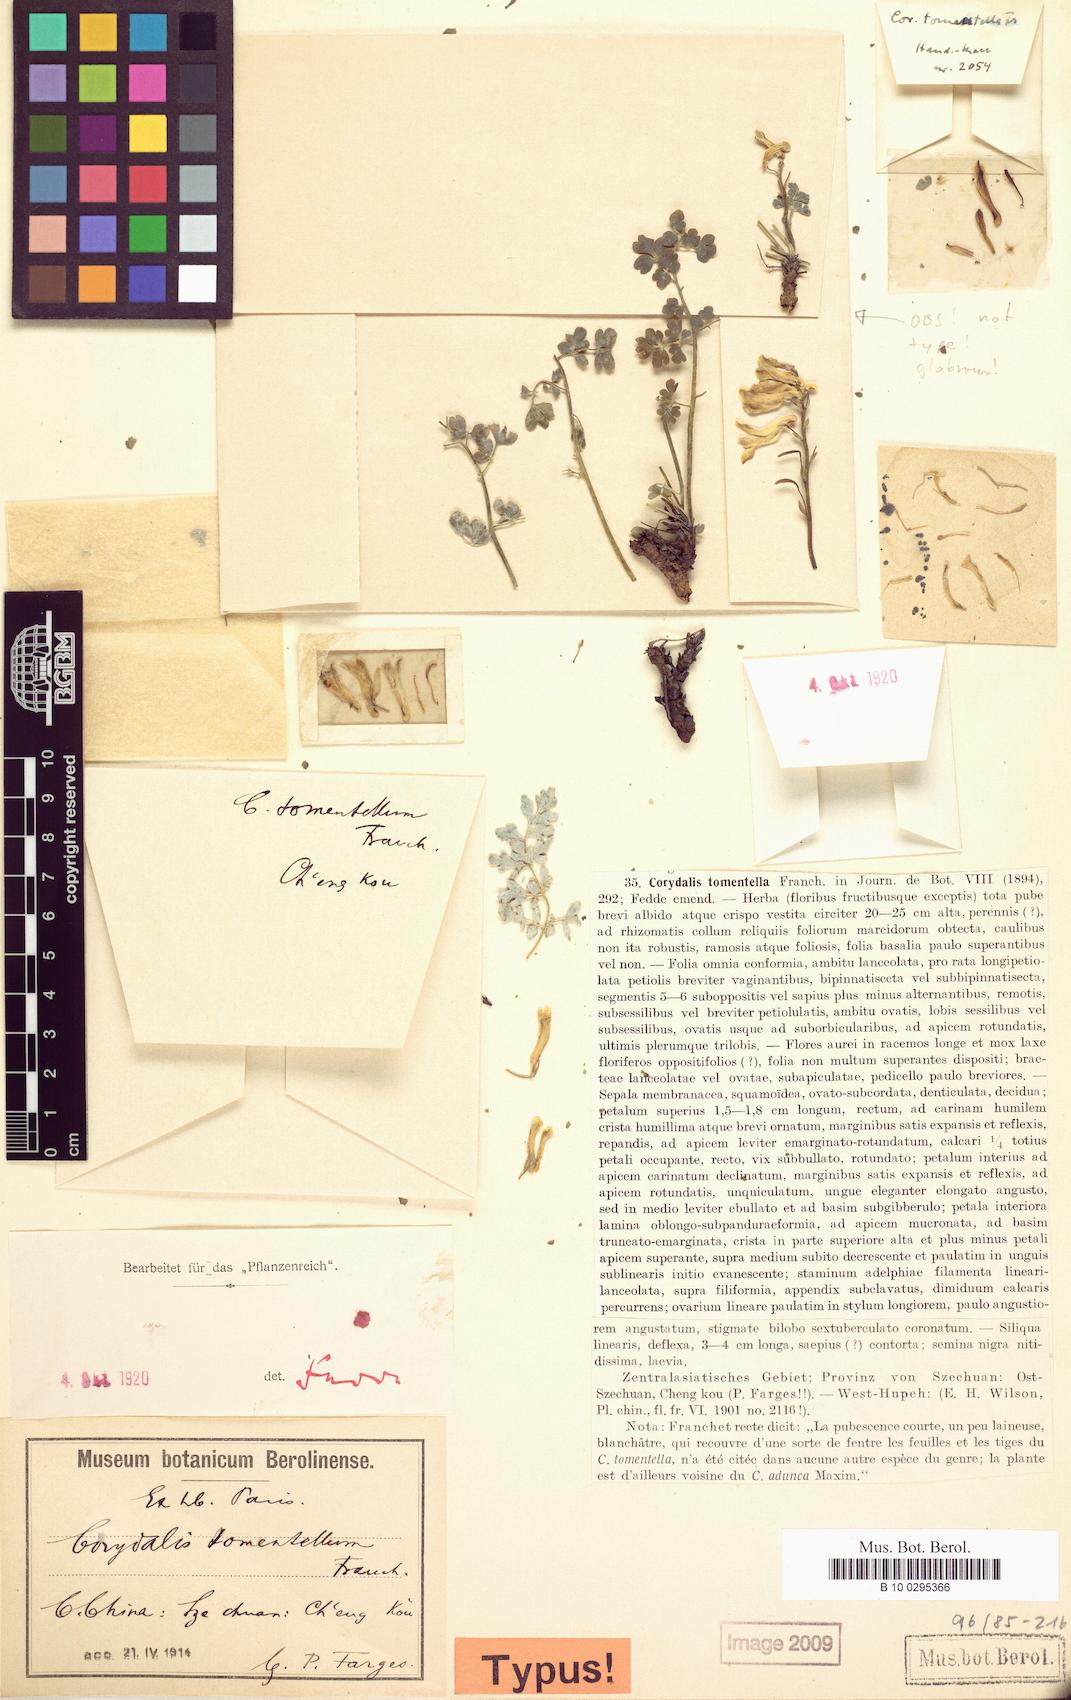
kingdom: Plantae
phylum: Tracheophyta
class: Magnoliopsida
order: Ranunculales
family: Papaveraceae
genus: Corydalis
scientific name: Corydalis tomentella
